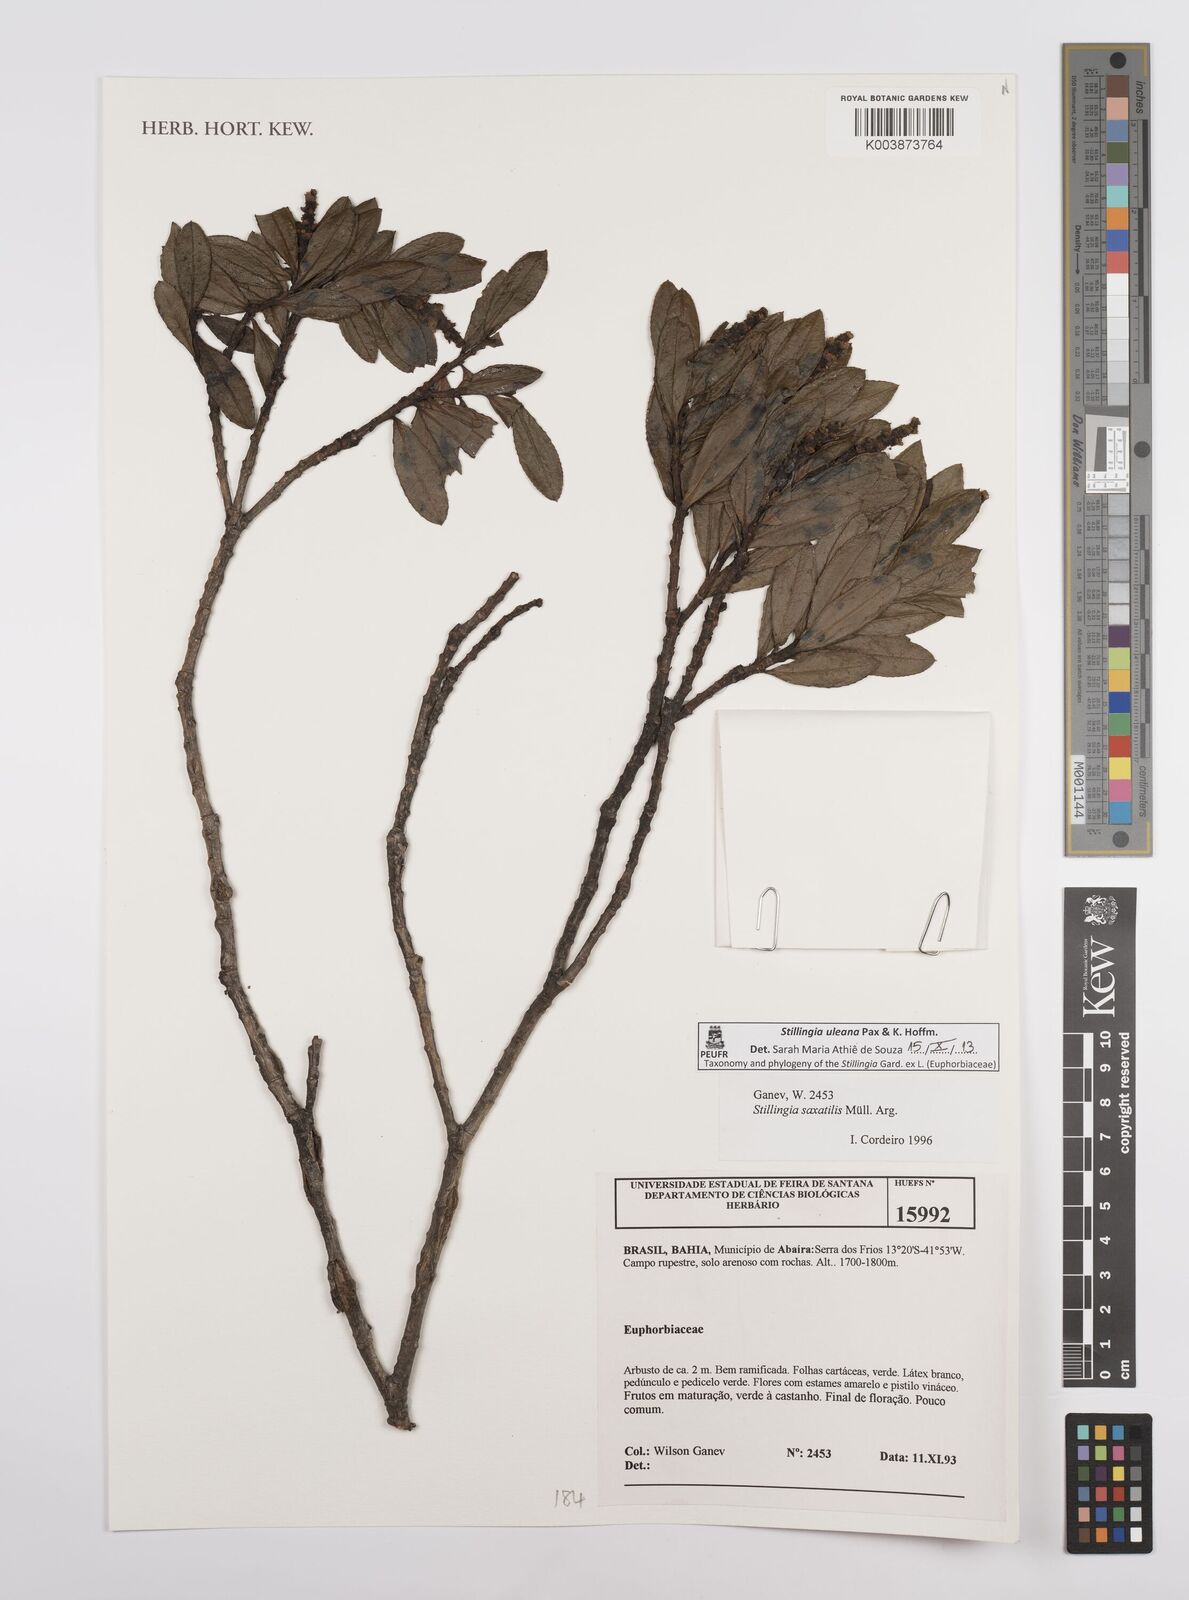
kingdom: Plantae
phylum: Tracheophyta
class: Magnoliopsida
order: Malpighiales
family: Euphorbiaceae
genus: Stillingia
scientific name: Stillingia uleana
